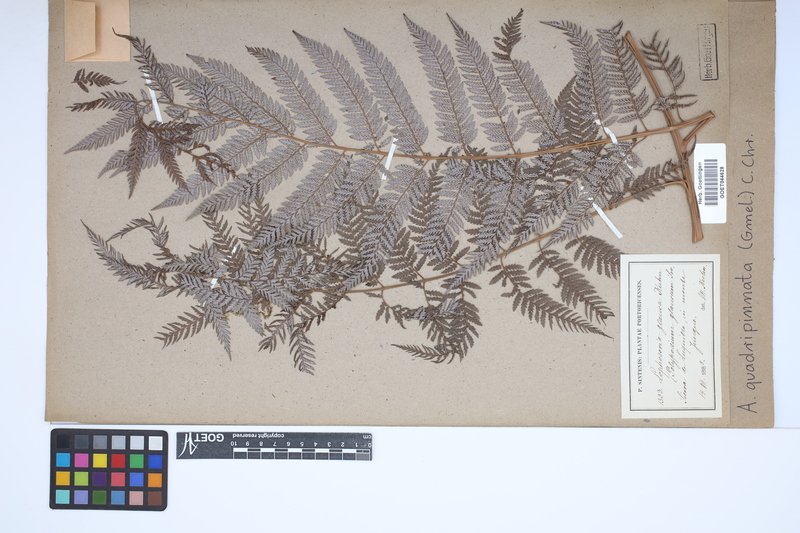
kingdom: Plantae
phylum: Tracheophyta
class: Polypodiopsida
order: Cyatheales
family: Dicksoniaceae
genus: Lophosoria
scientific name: Lophosoria quadripinnata
